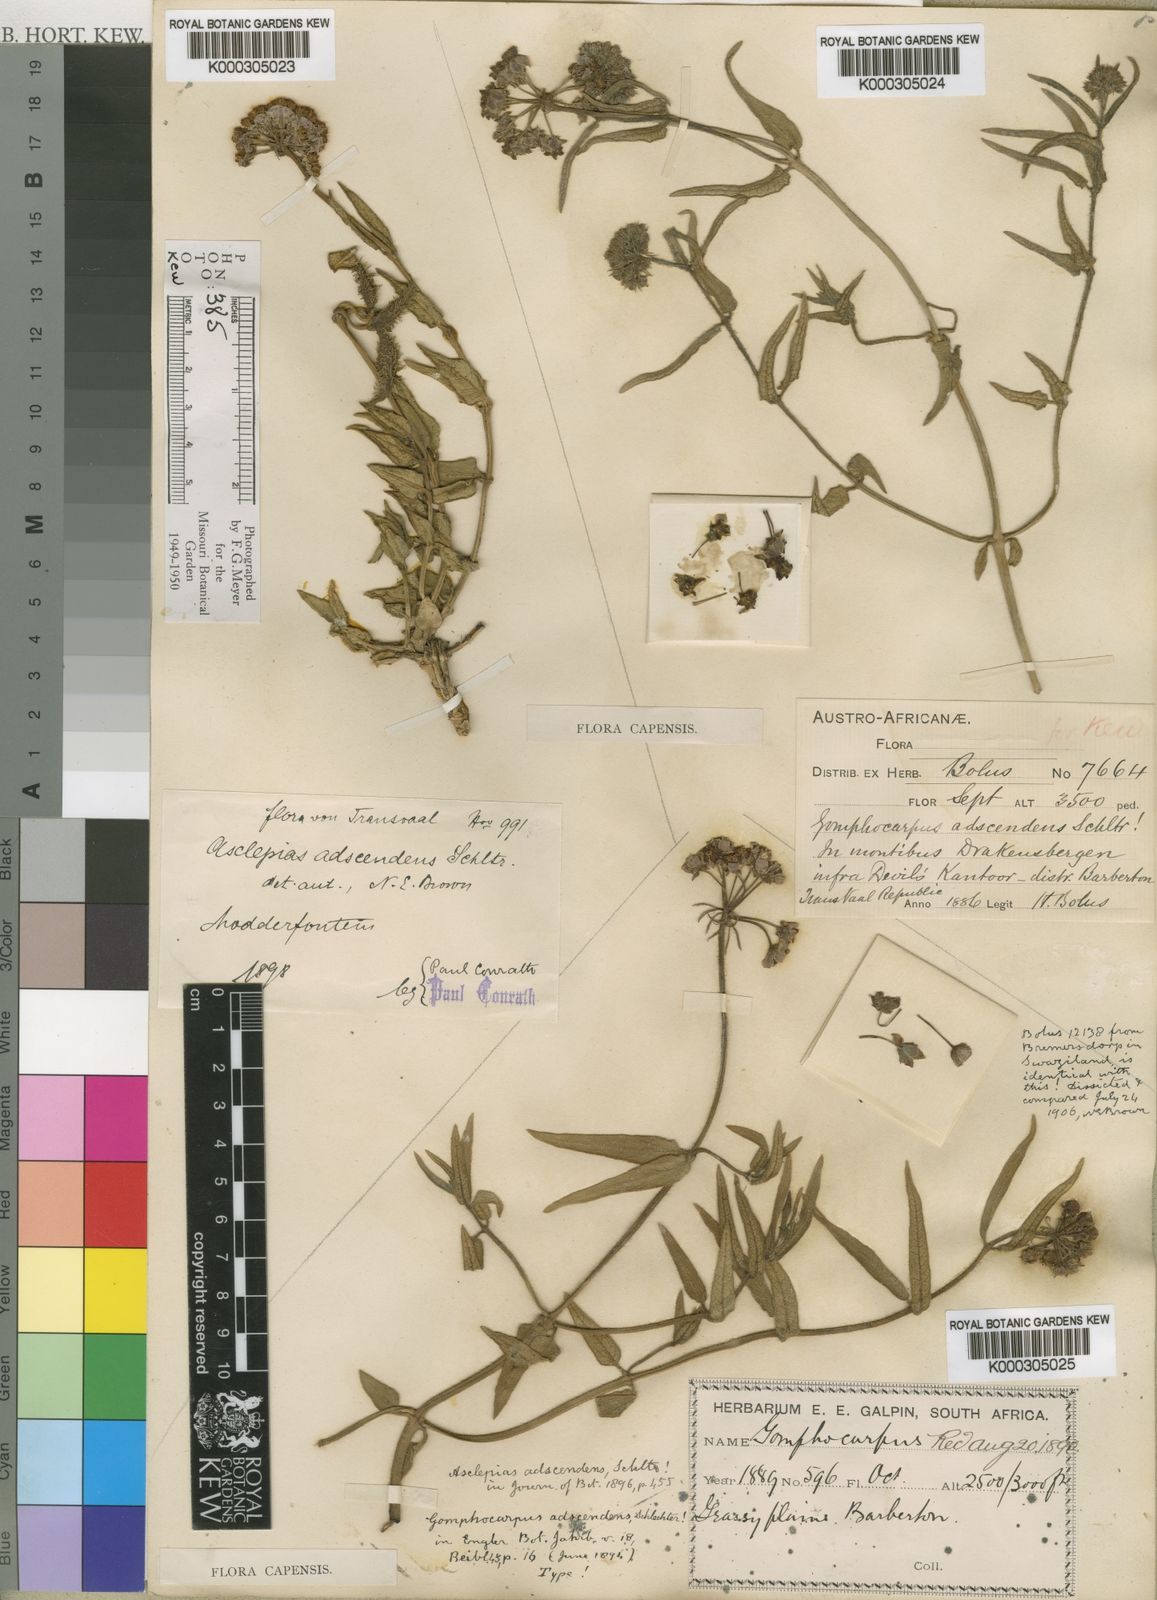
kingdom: Plantae
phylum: Tracheophyta
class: Magnoliopsida
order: Gentianales
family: Apocynaceae
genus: Asclepias
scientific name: Asclepias adscendens
